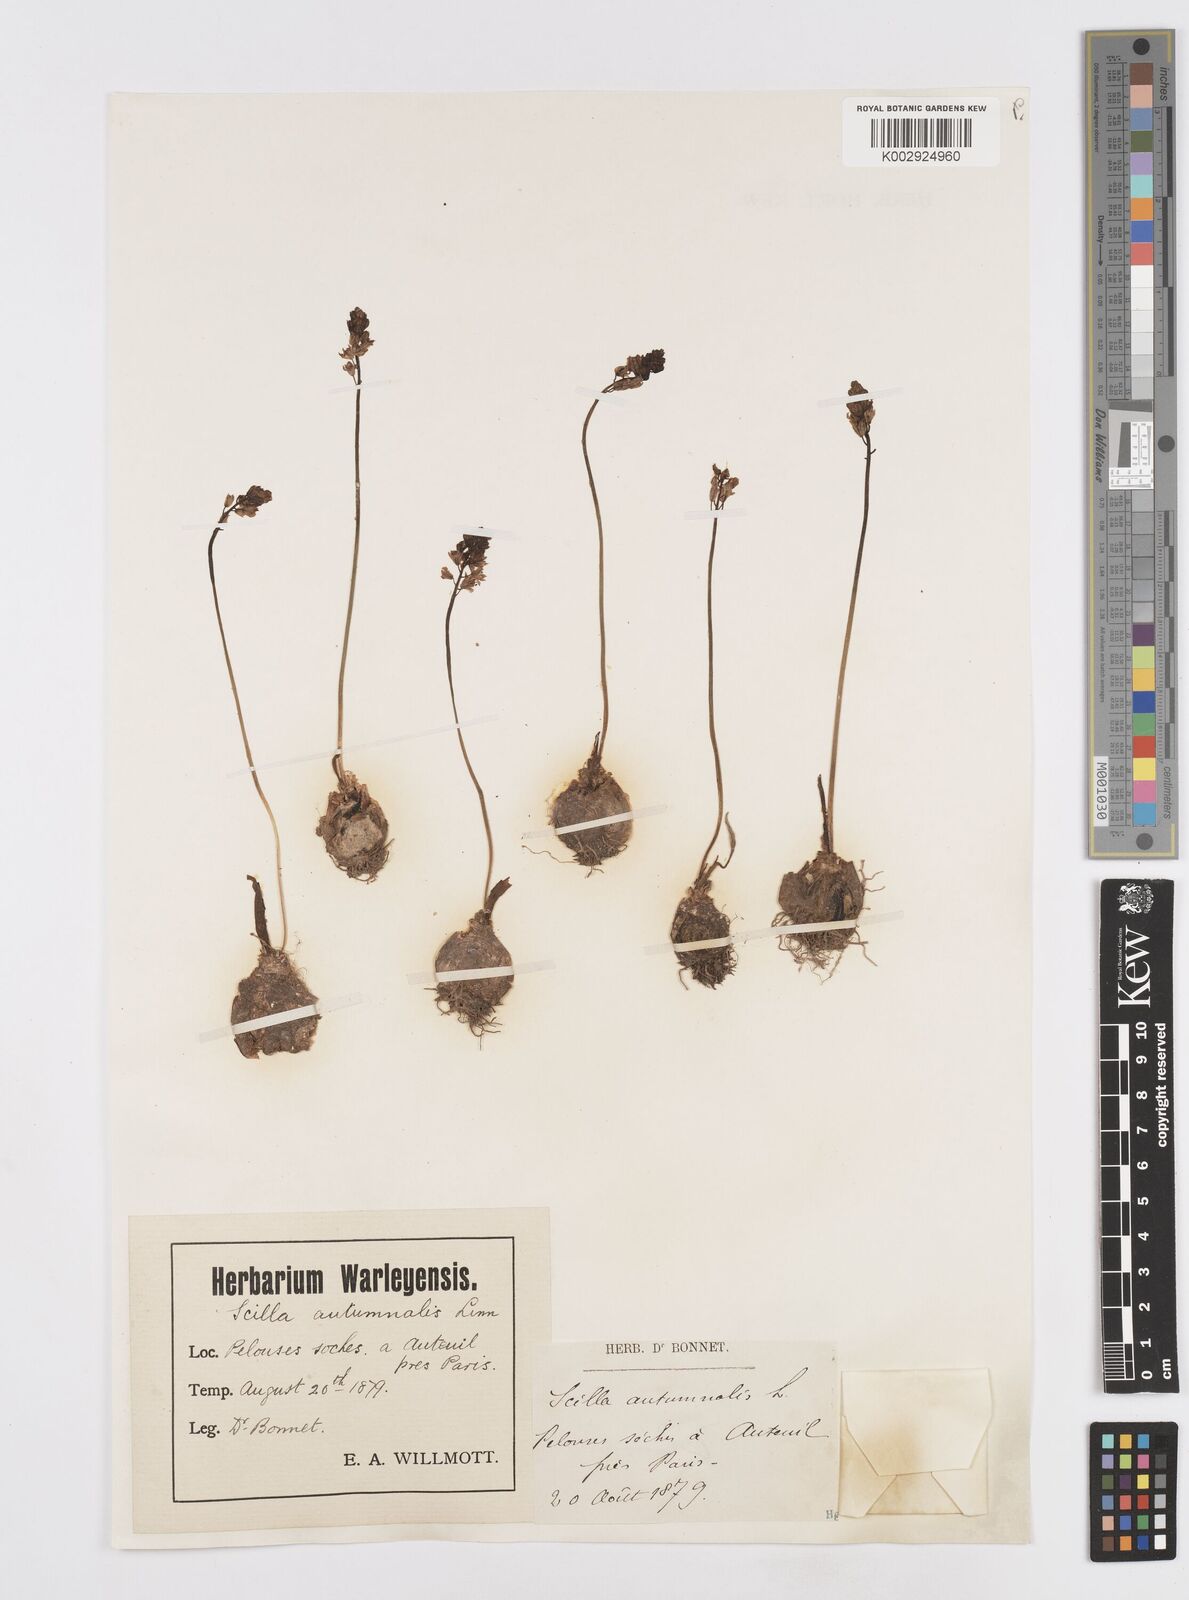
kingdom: Plantae
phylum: Tracheophyta
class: Liliopsida
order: Asparagales
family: Asparagaceae
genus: Prospero
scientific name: Prospero autumnale
